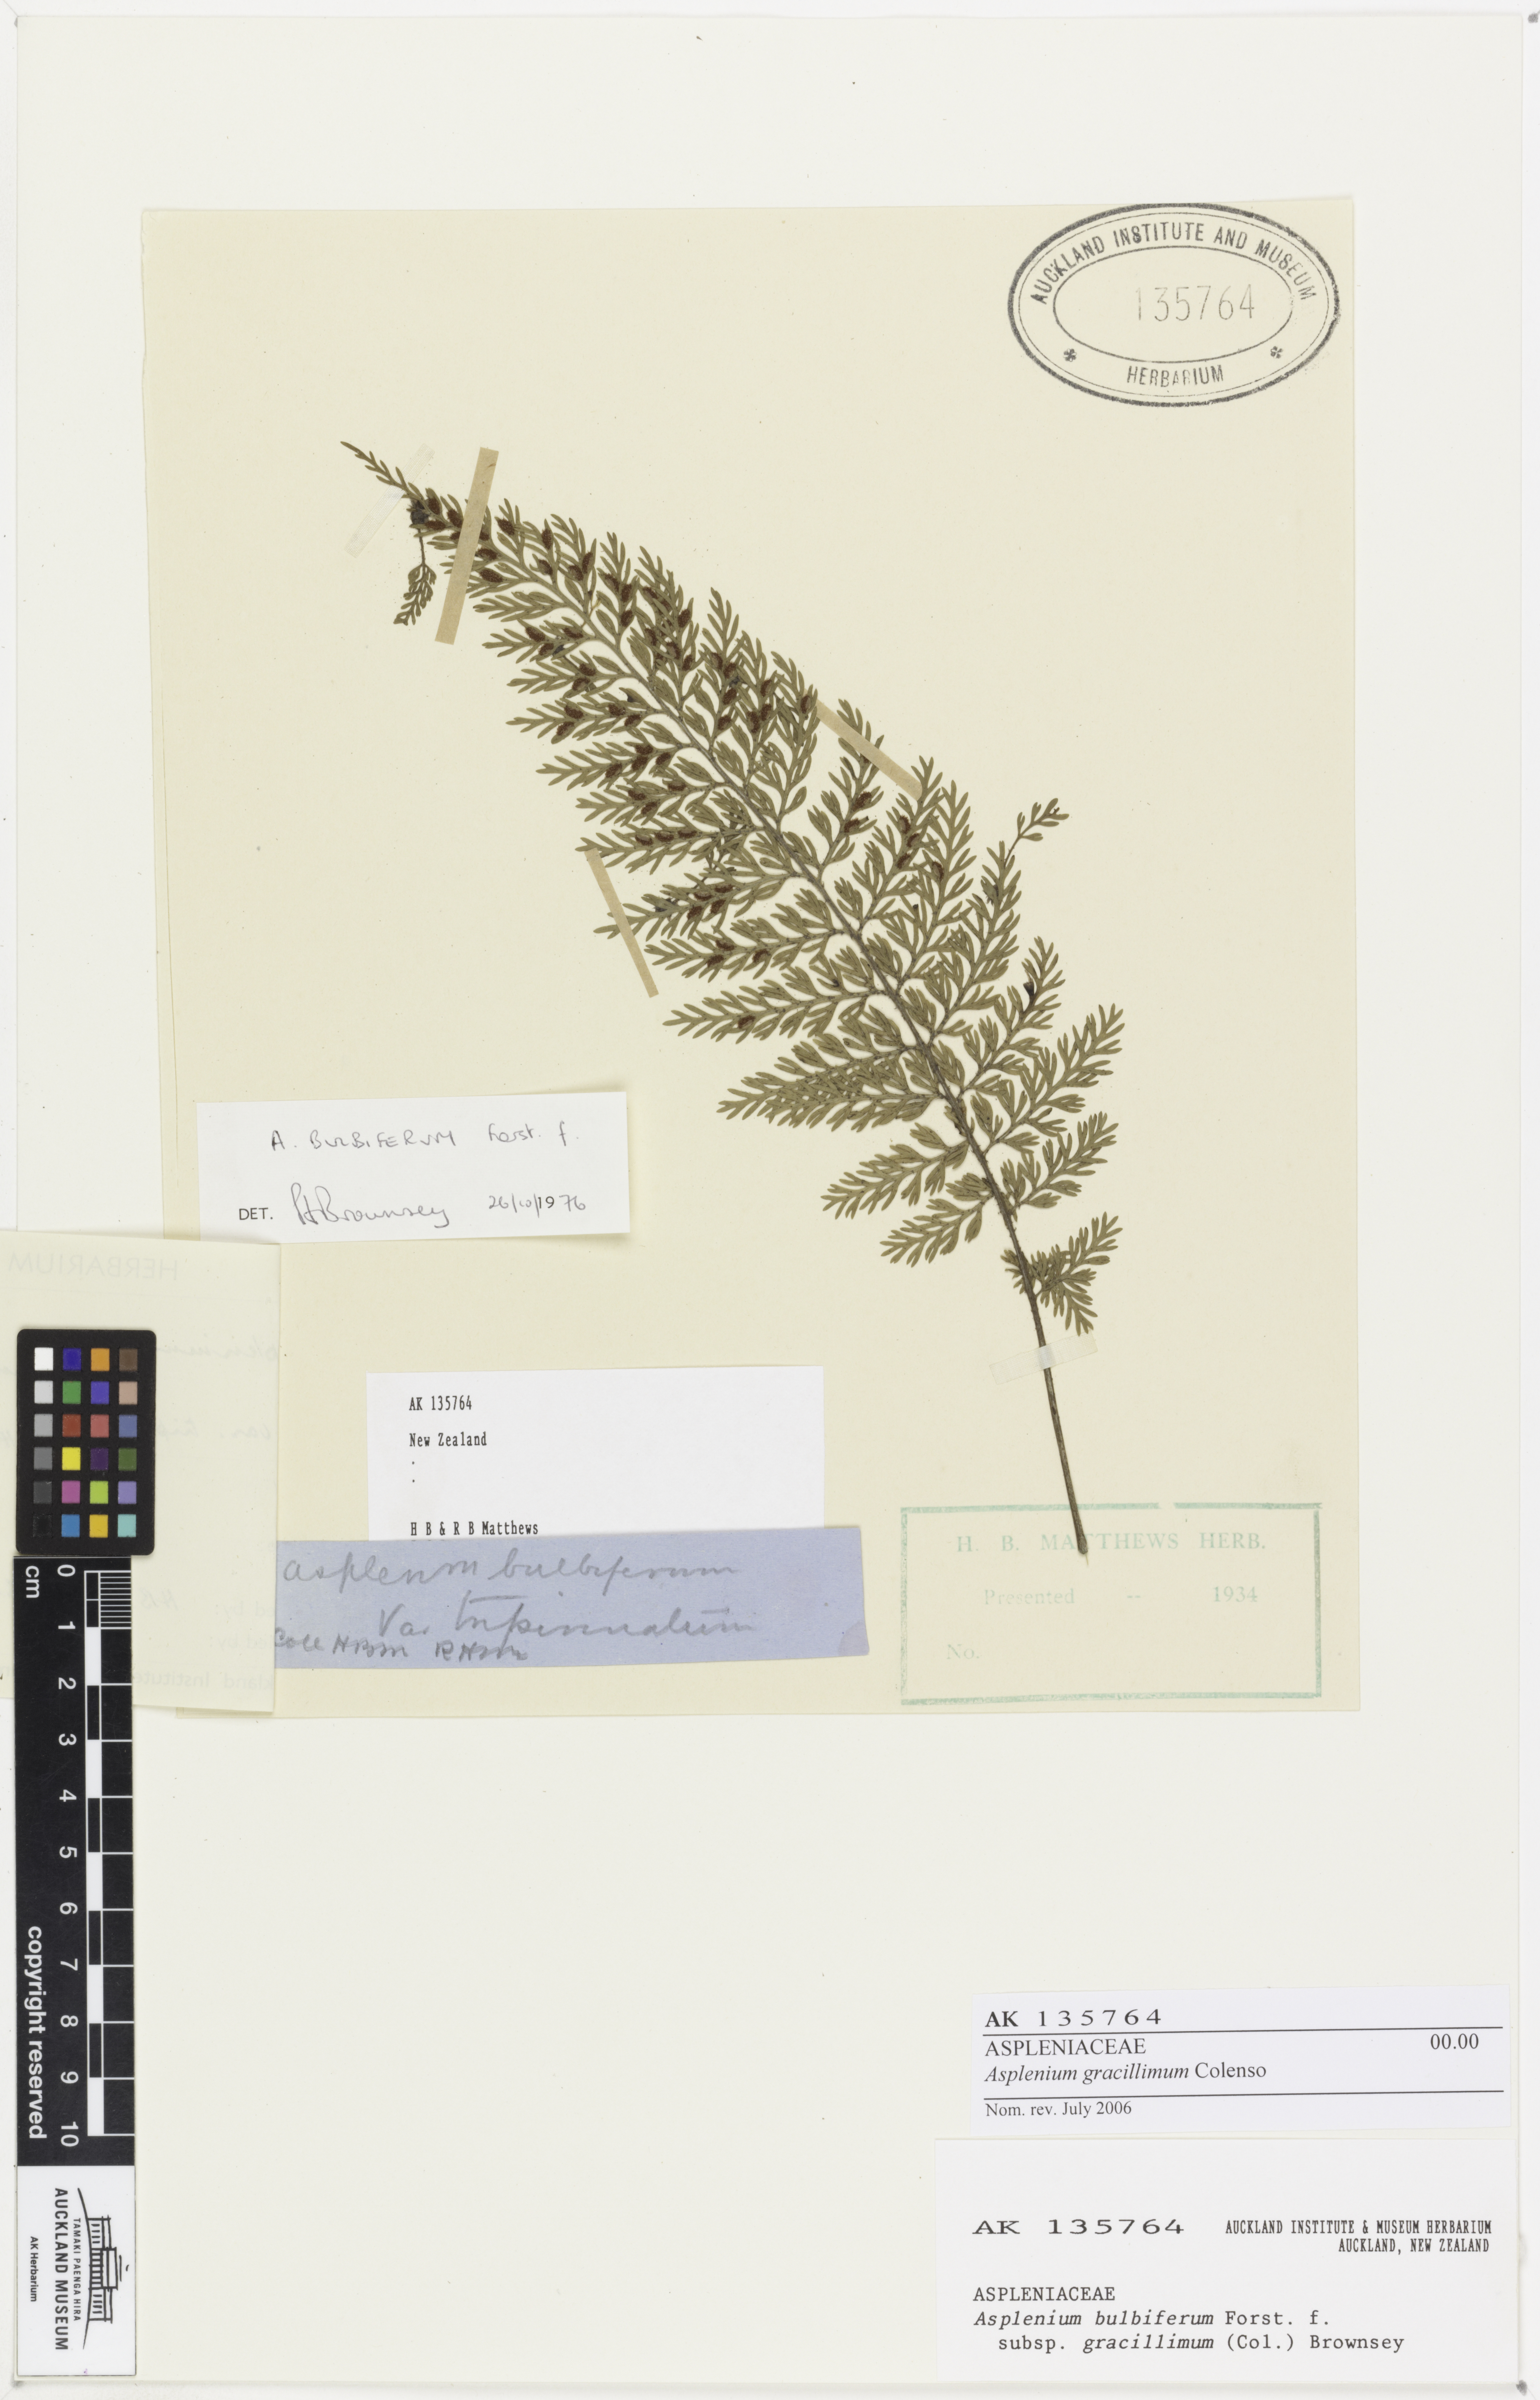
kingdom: Plantae
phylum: Tracheophyta
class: Polypodiopsida
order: Polypodiales
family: Aspleniaceae
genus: Asplenium
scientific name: Asplenium bulbiferum
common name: Mother fern
